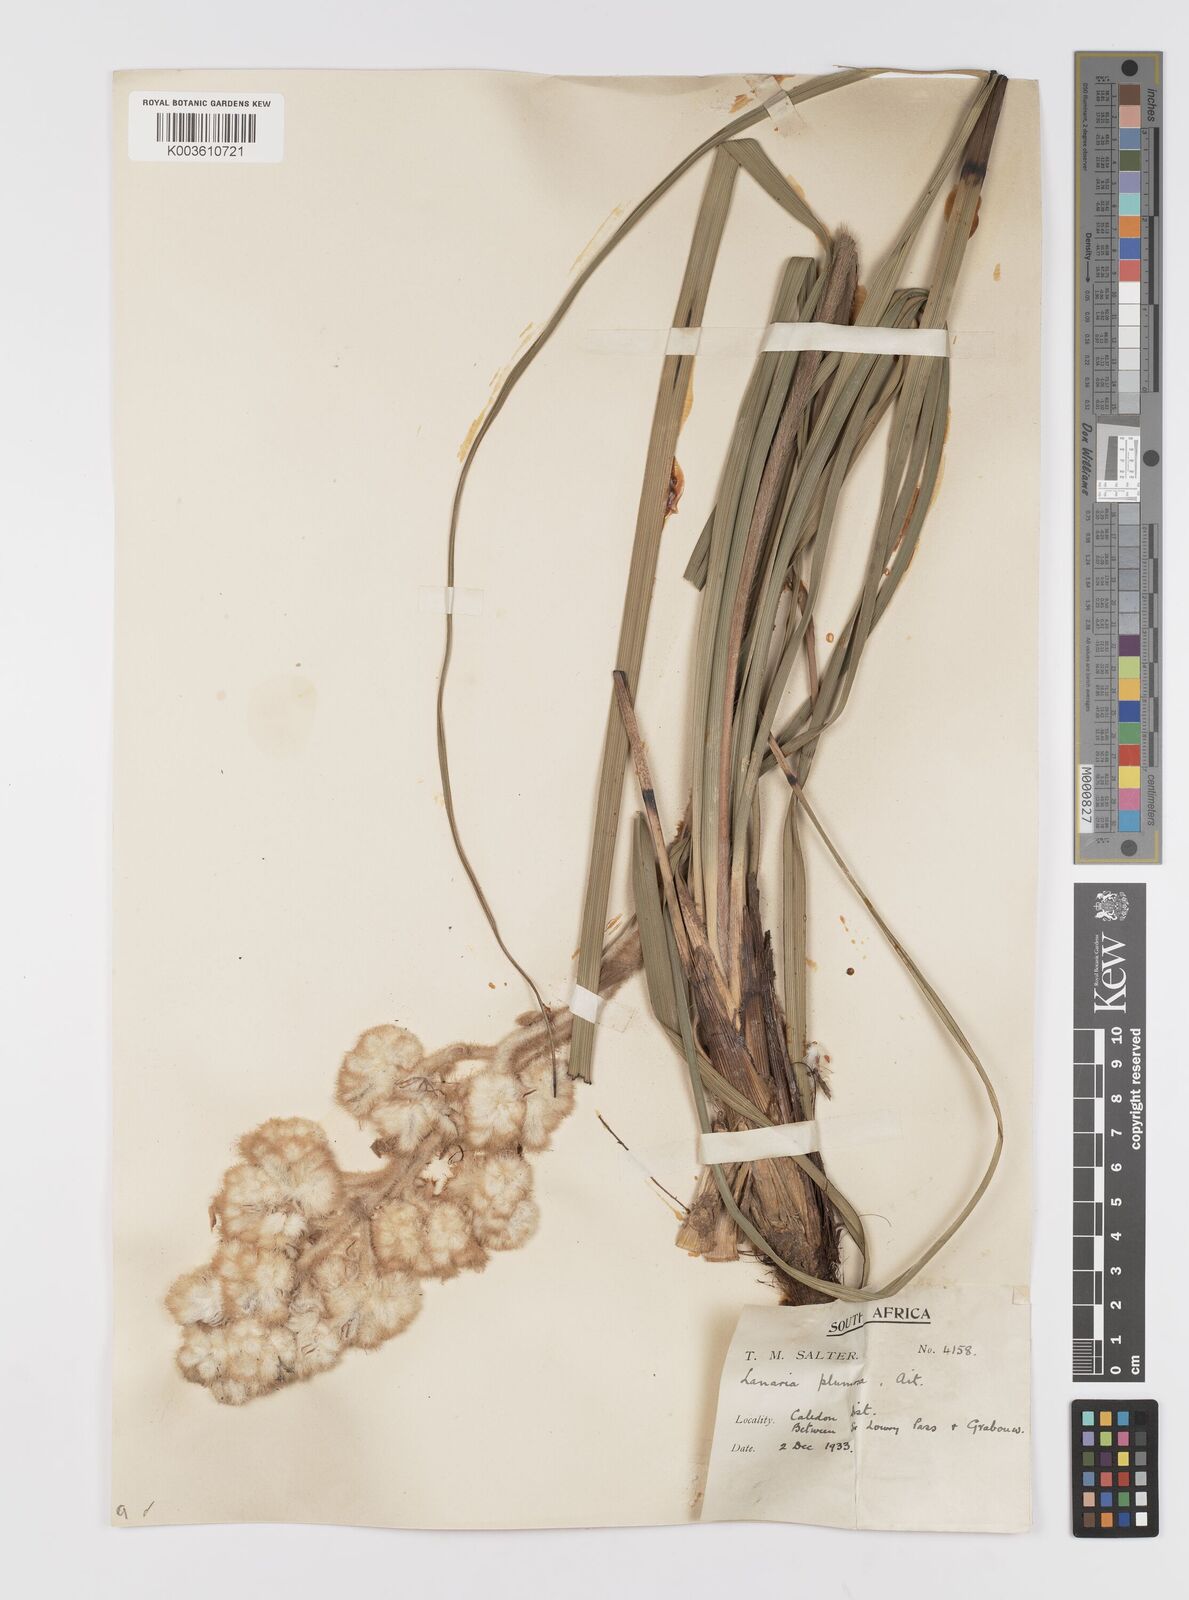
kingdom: Plantae
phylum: Tracheophyta
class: Liliopsida
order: Asparagales
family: Lanariaceae
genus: Lanaria
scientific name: Lanaria lanata
